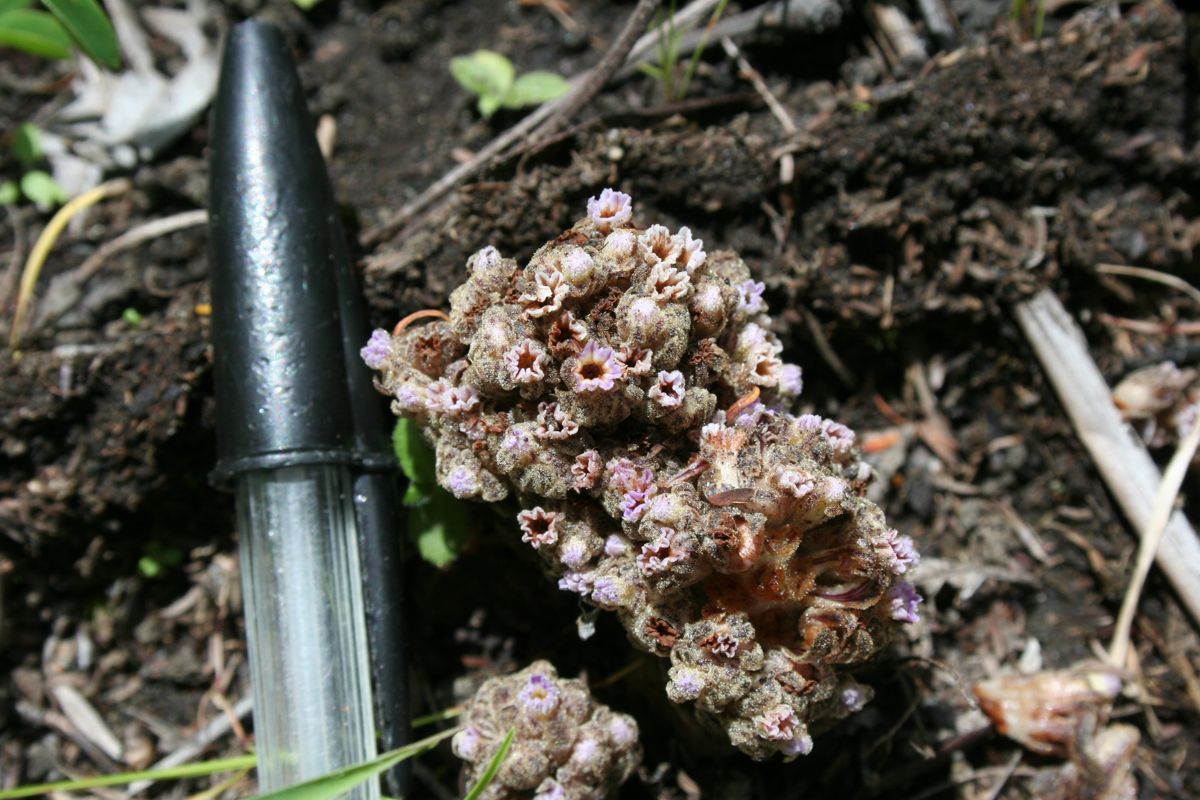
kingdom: Plantae
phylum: Tracheophyta
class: Magnoliopsida
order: Boraginales
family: Lennoaceae
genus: Lennoa
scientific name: Lennoa madreporoides
